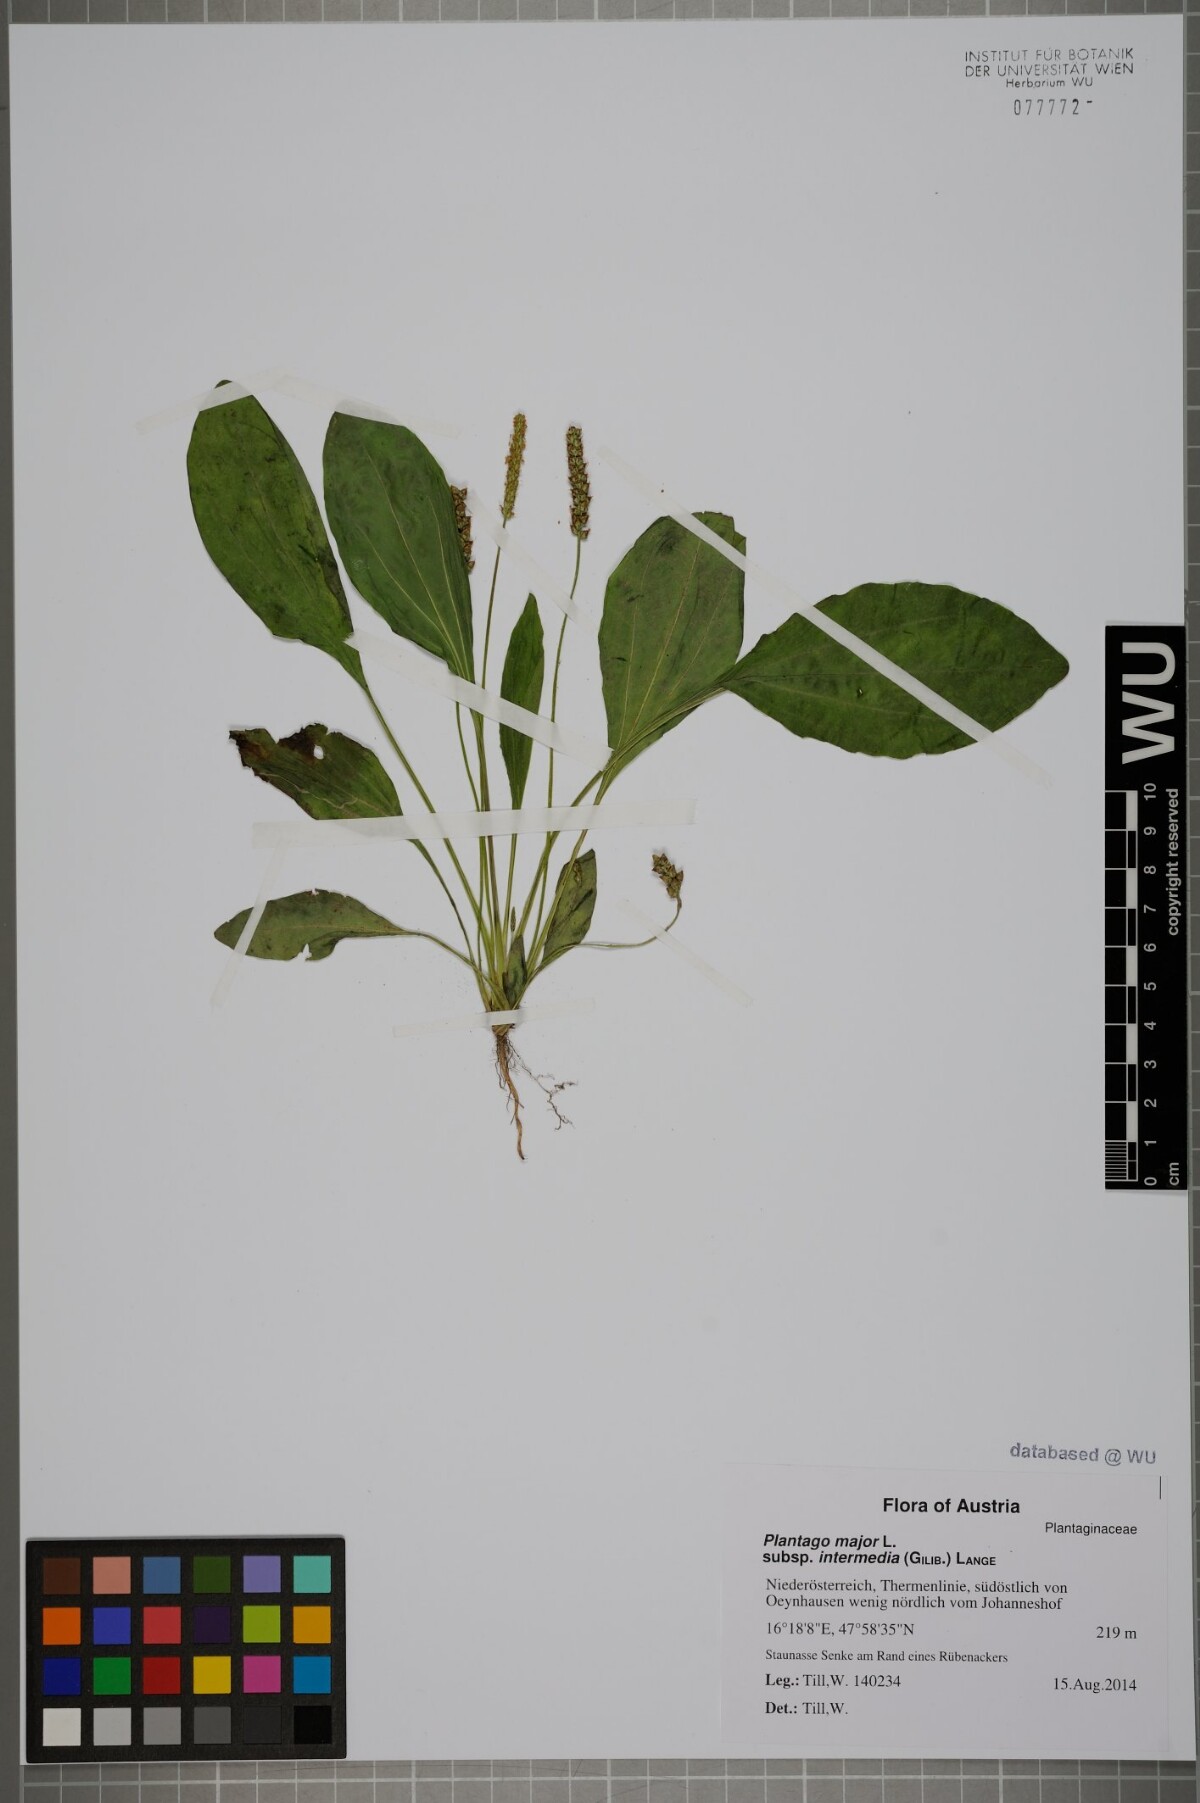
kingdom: Plantae
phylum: Tracheophyta
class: Magnoliopsida
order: Lamiales
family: Plantaginaceae
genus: Plantago
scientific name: Plantago uliginosa
